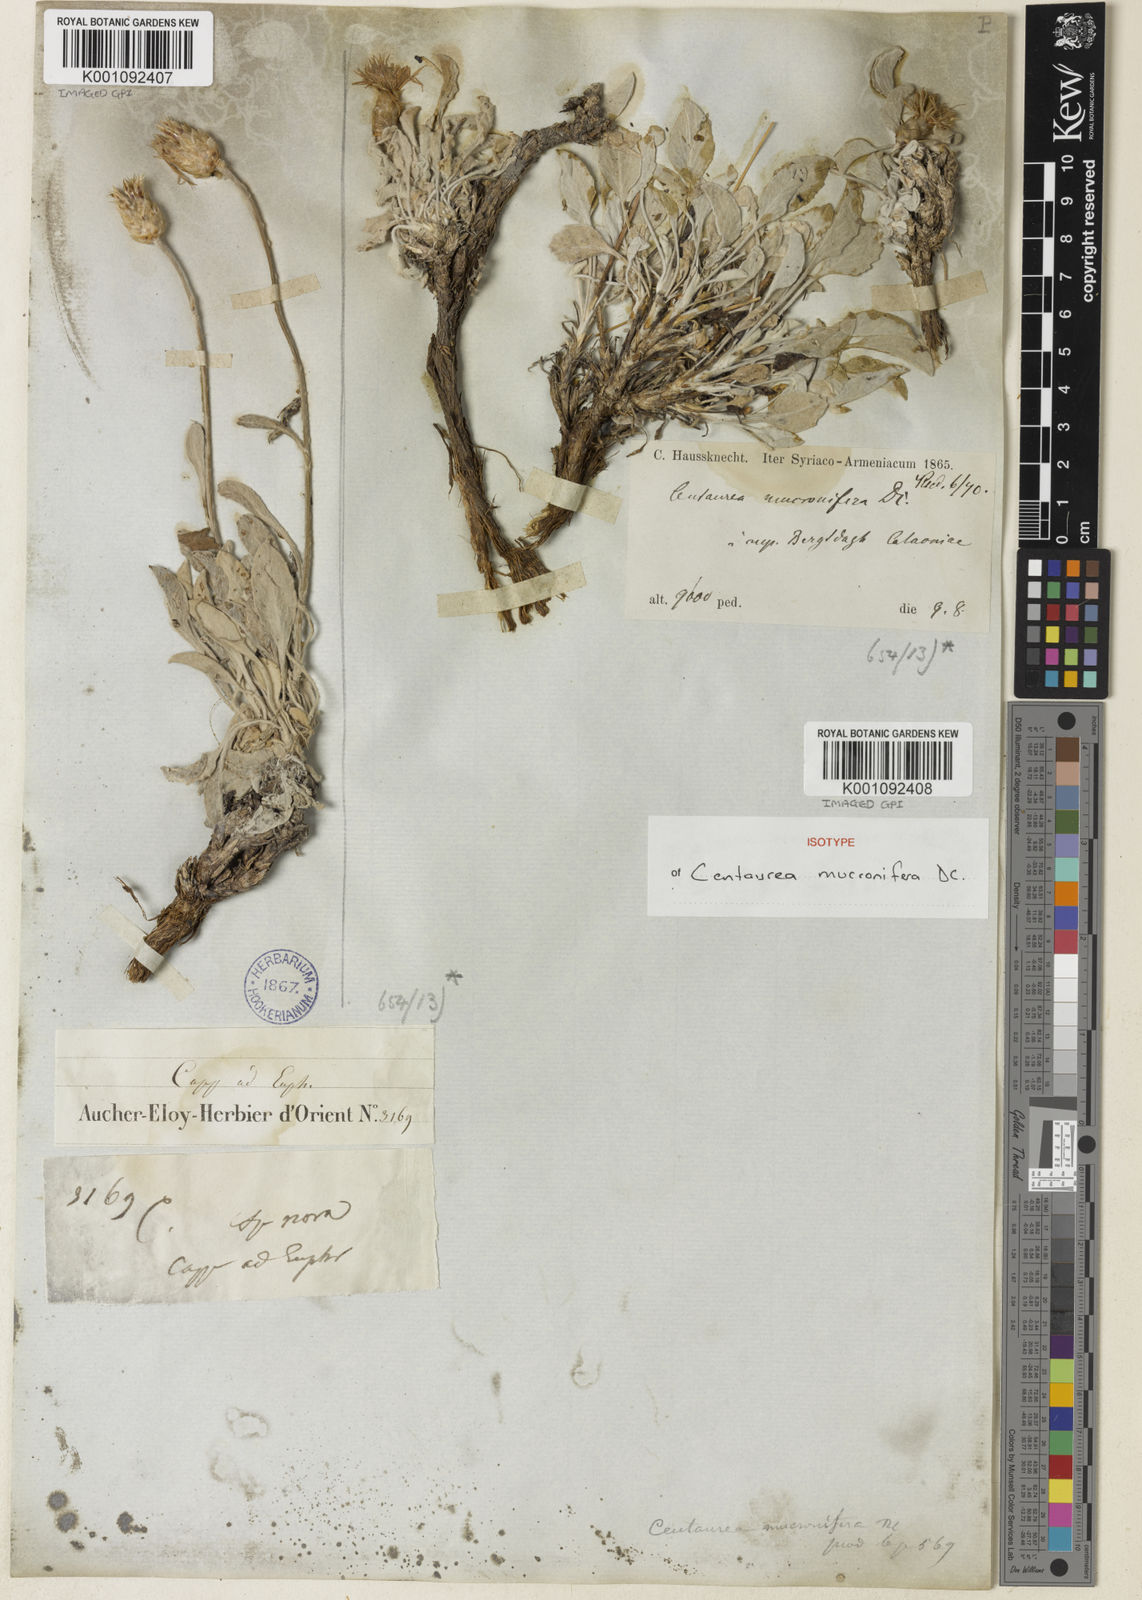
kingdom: Plantae
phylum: Tracheophyta
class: Magnoliopsida
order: Asterales
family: Asteraceae
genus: Psephellus
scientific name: Psephellus mucronifer
